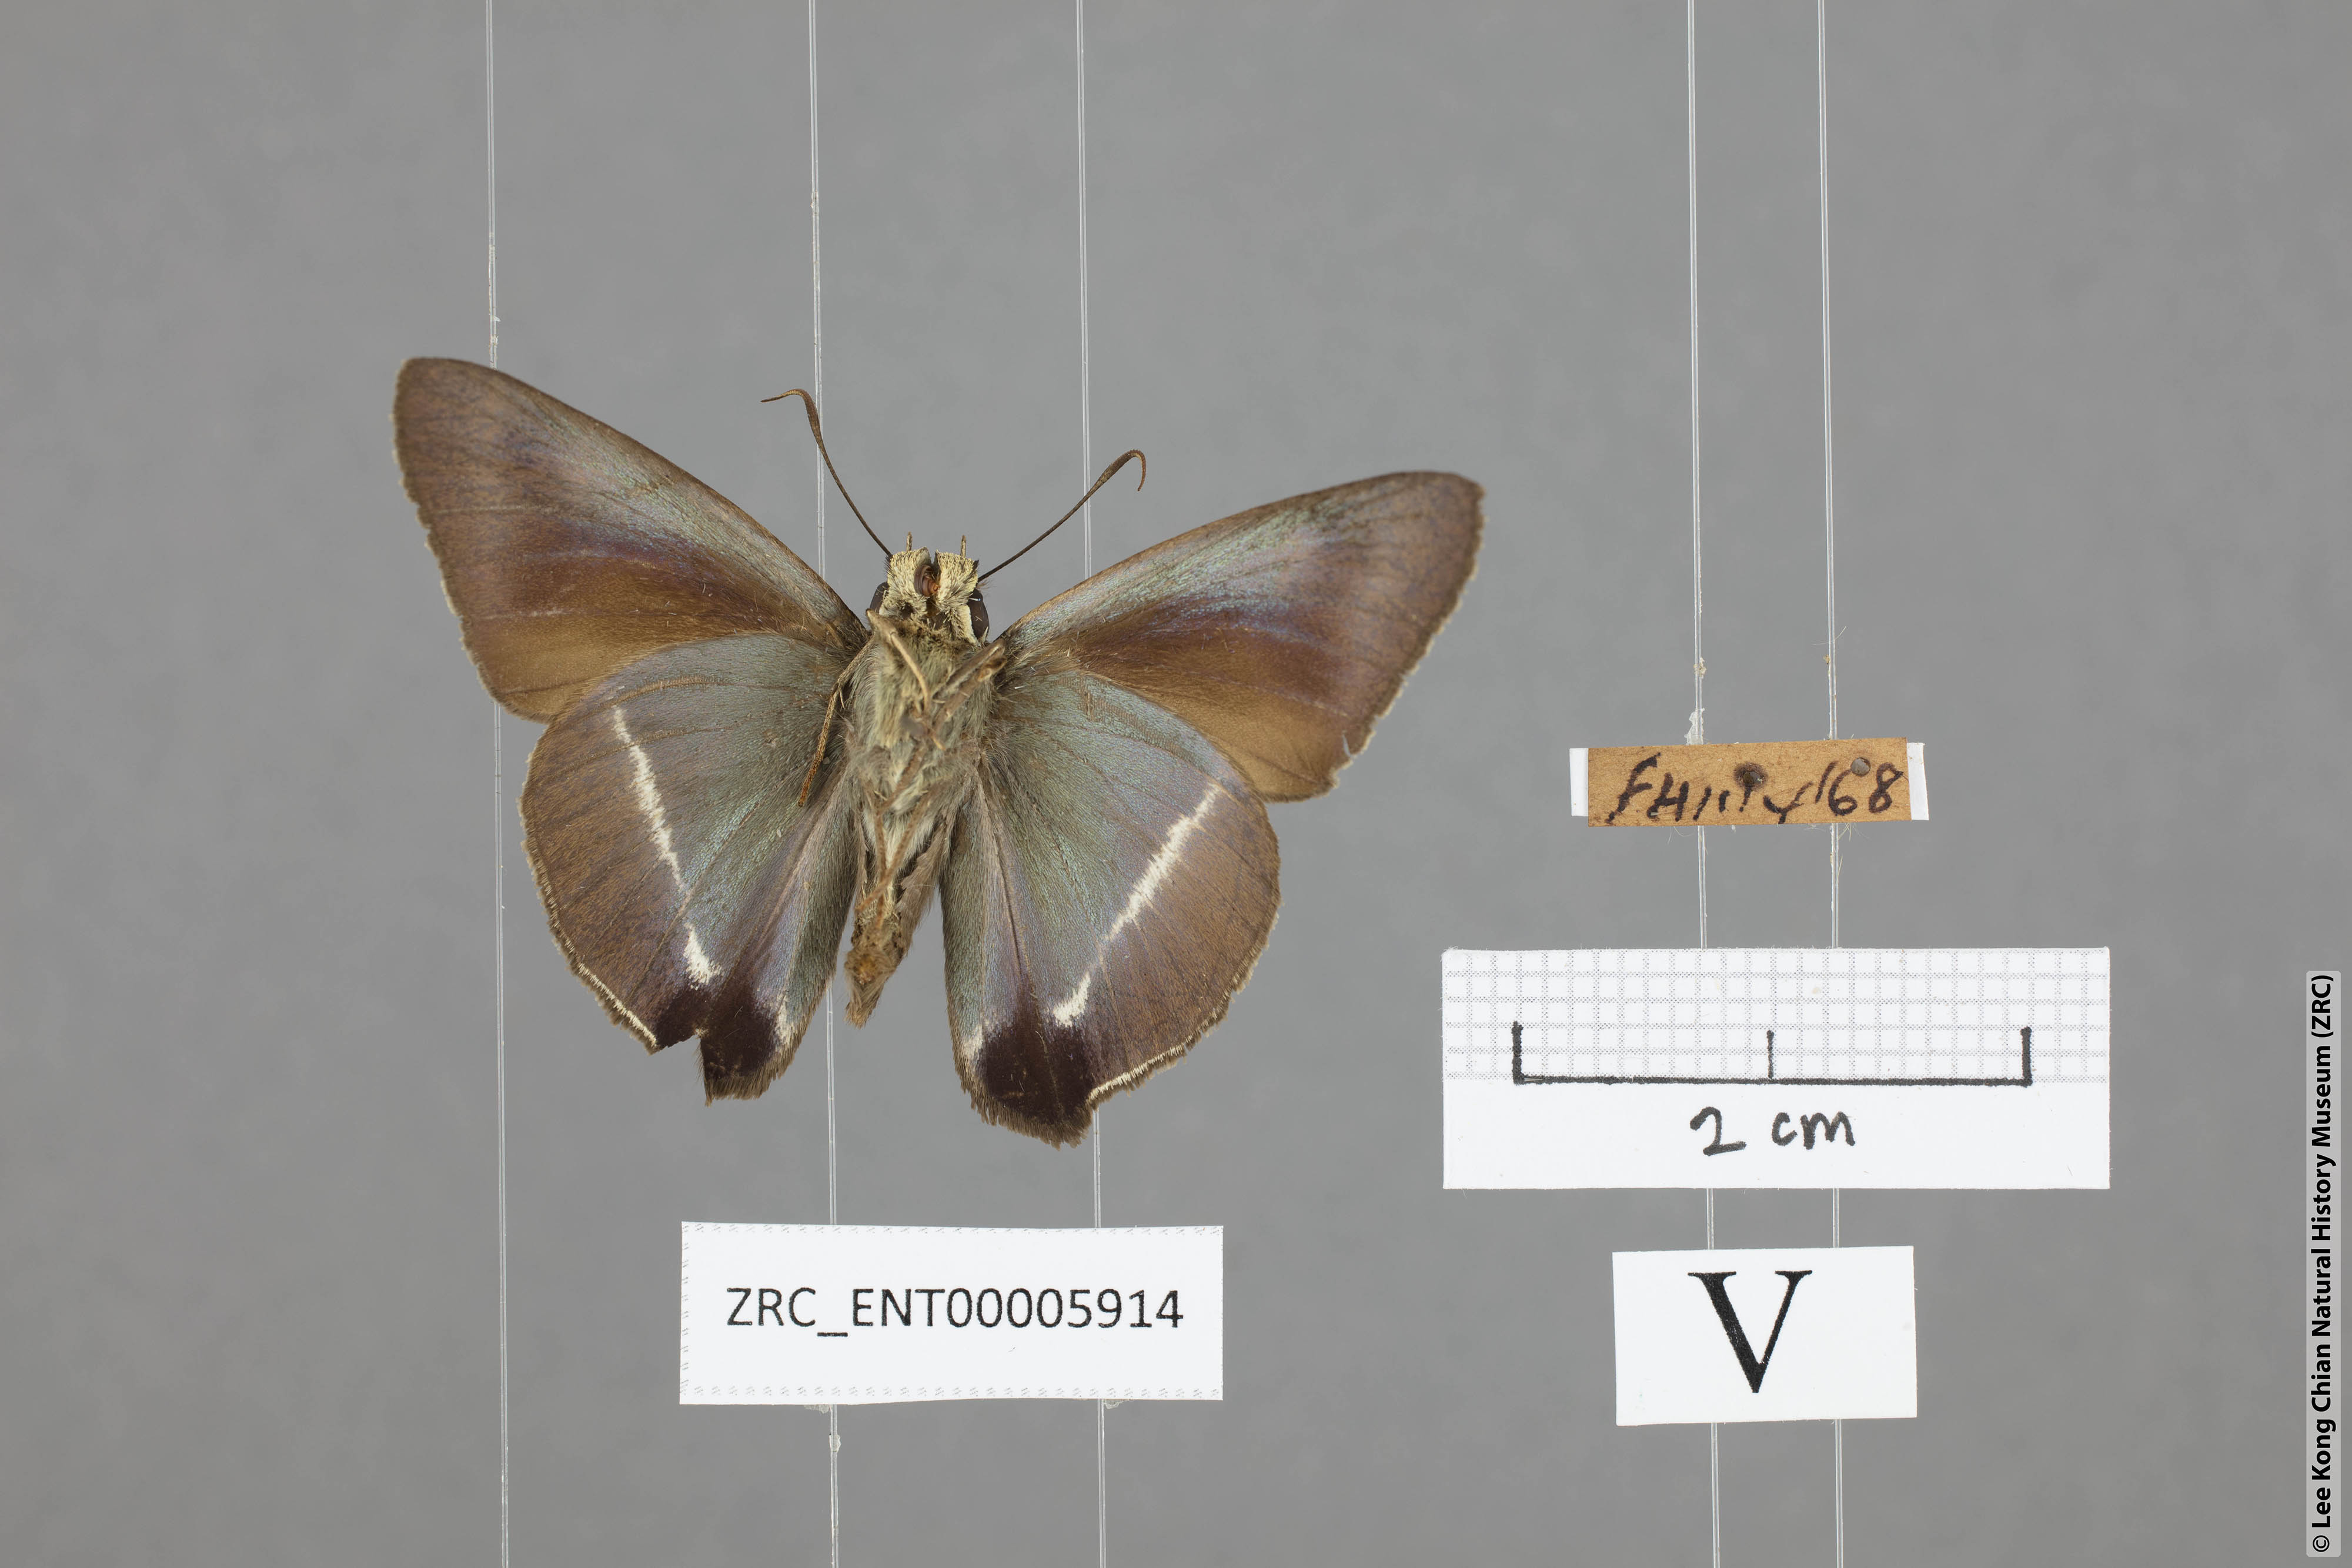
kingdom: Animalia
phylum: Arthropoda
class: Insecta
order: Lepidoptera
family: Hesperiidae
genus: Hasora
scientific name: Hasora taminatus
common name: White banded awl
